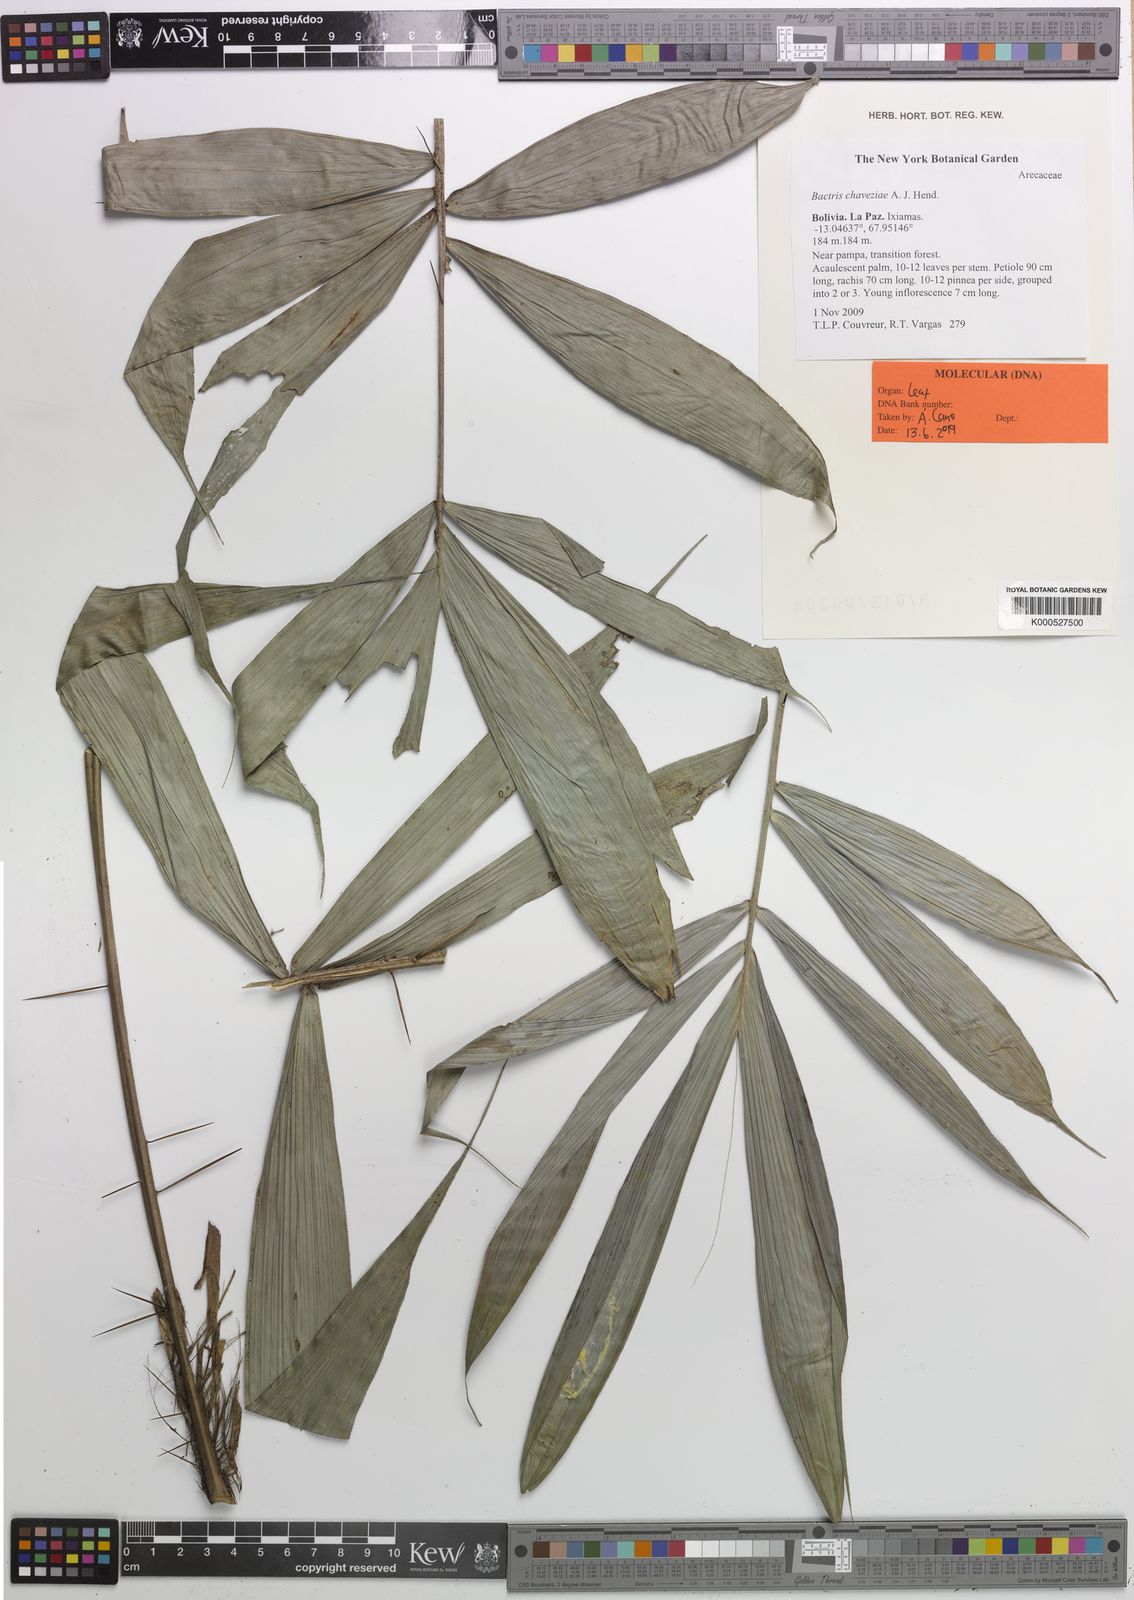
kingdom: Plantae
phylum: Tracheophyta
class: Liliopsida
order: Arecales
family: Arecaceae
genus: Bactris
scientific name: Bactris chaveziae
